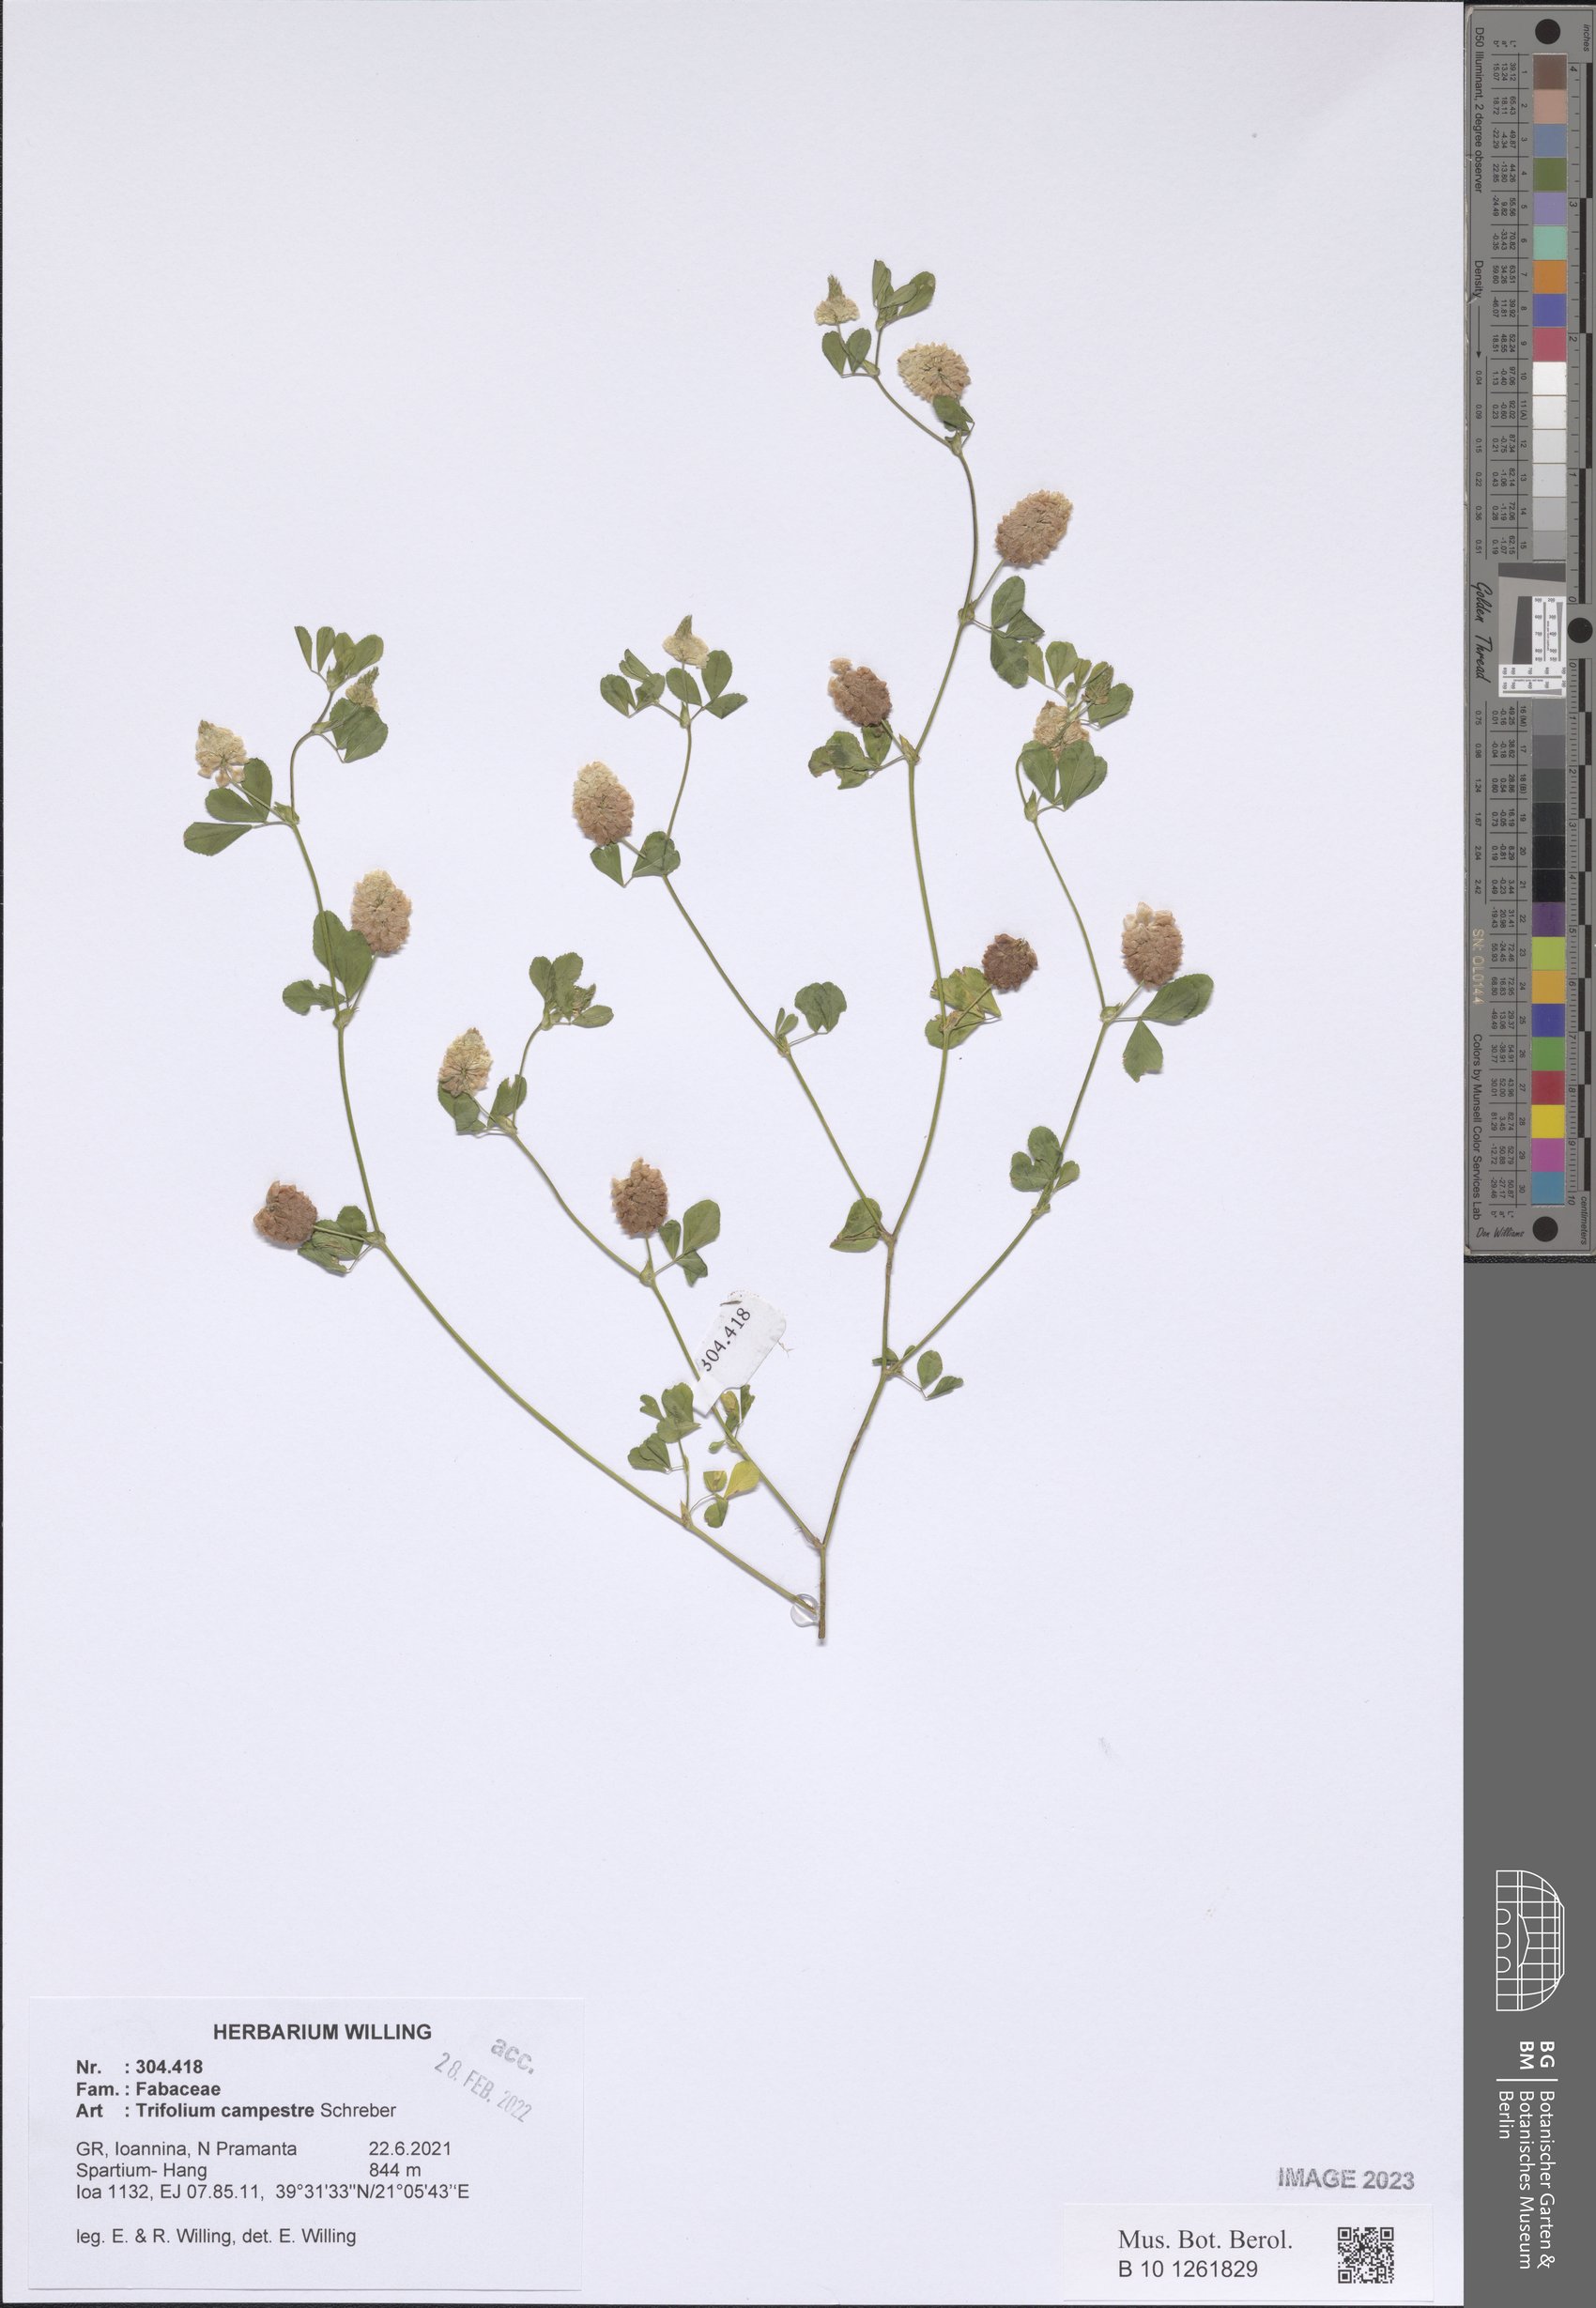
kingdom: Plantae
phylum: Tracheophyta
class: Magnoliopsida
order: Fabales
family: Fabaceae
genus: Trifolium
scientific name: Trifolium campestre
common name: Field clover
